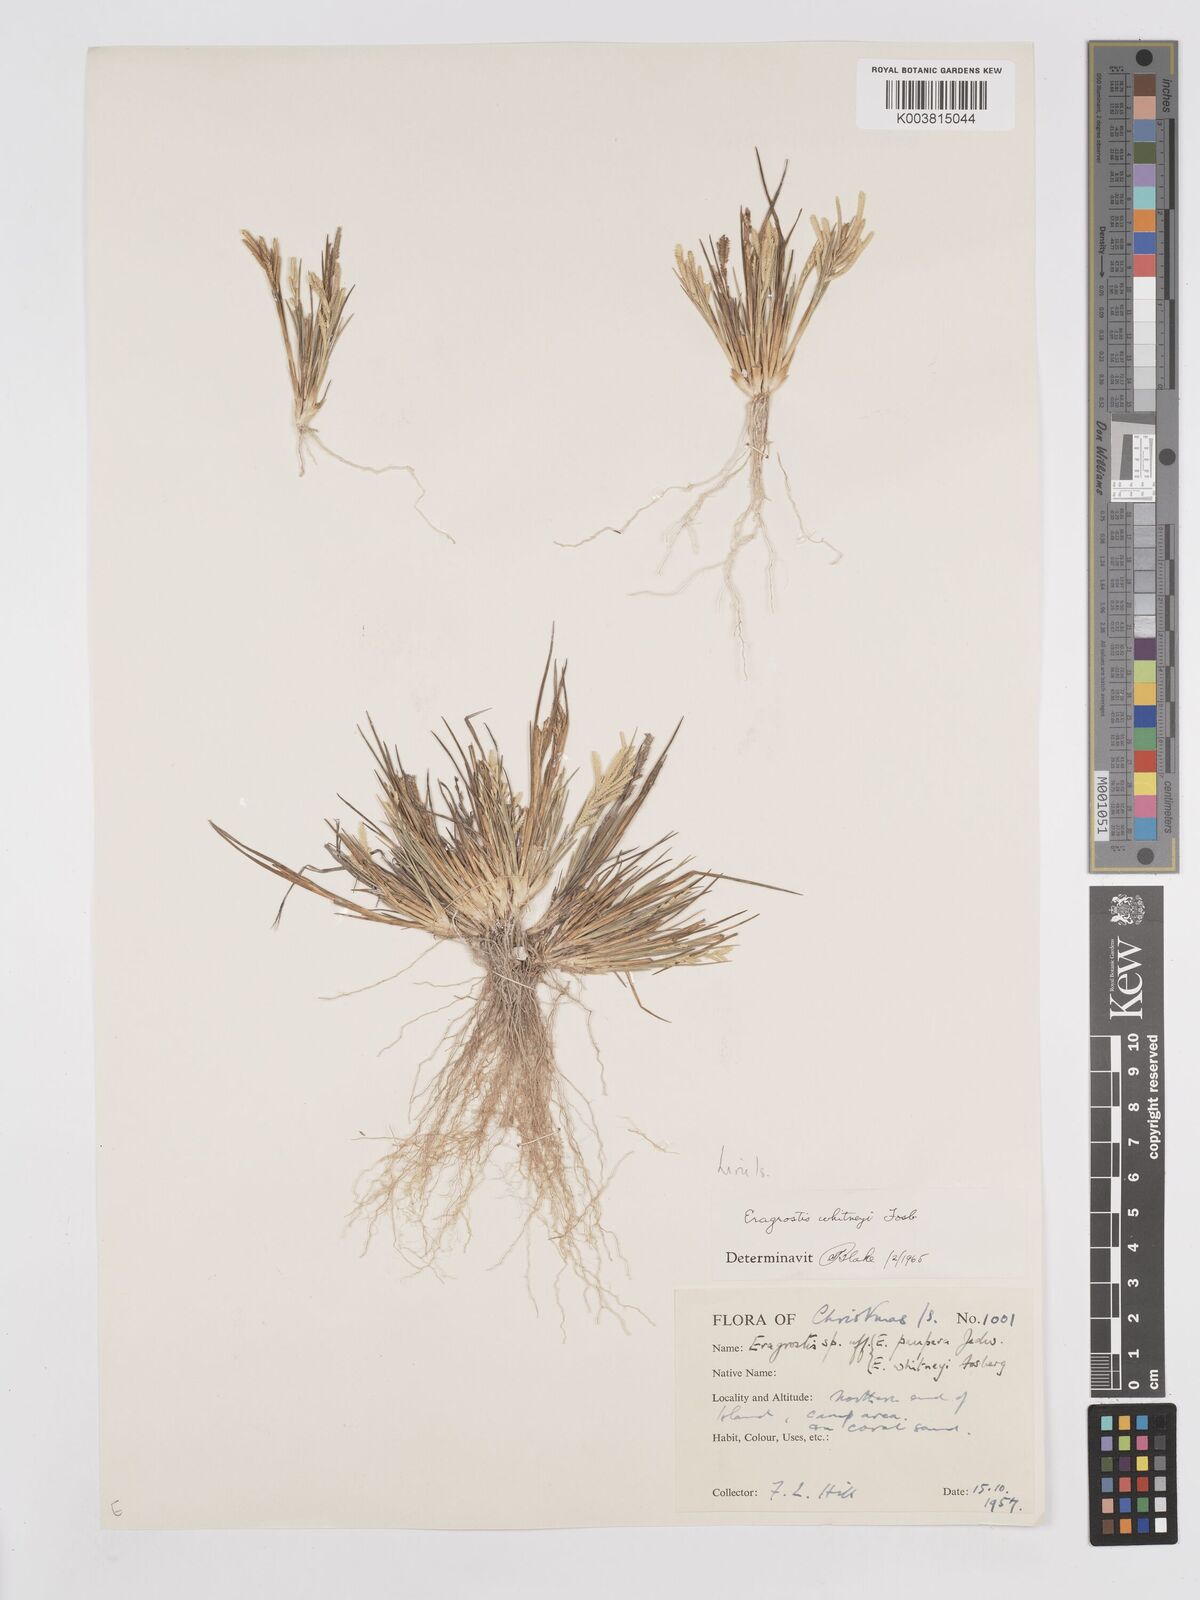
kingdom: Plantae
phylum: Tracheophyta
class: Liliopsida
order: Poales
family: Poaceae
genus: Eragrostis
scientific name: Eragrostis paupera
